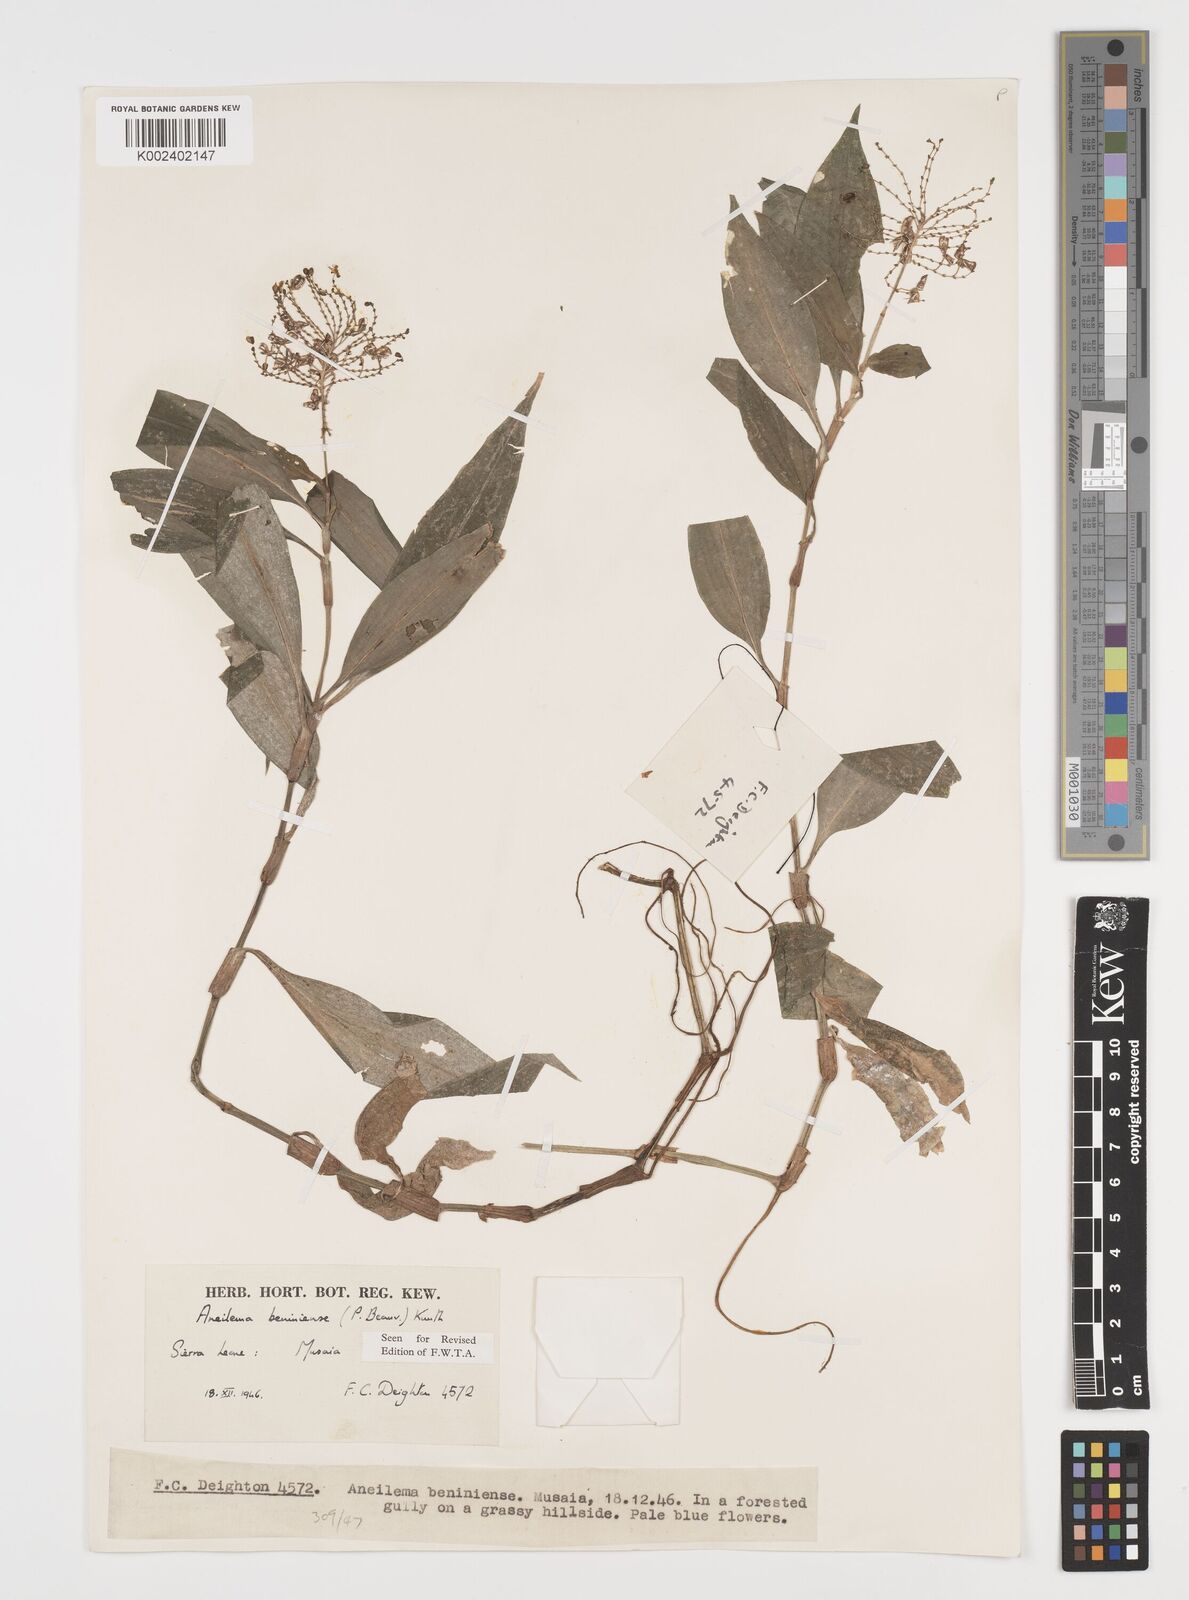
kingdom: Plantae
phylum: Tracheophyta
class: Liliopsida
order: Commelinales
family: Commelinaceae
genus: Aneilema
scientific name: Aneilema beniniense
